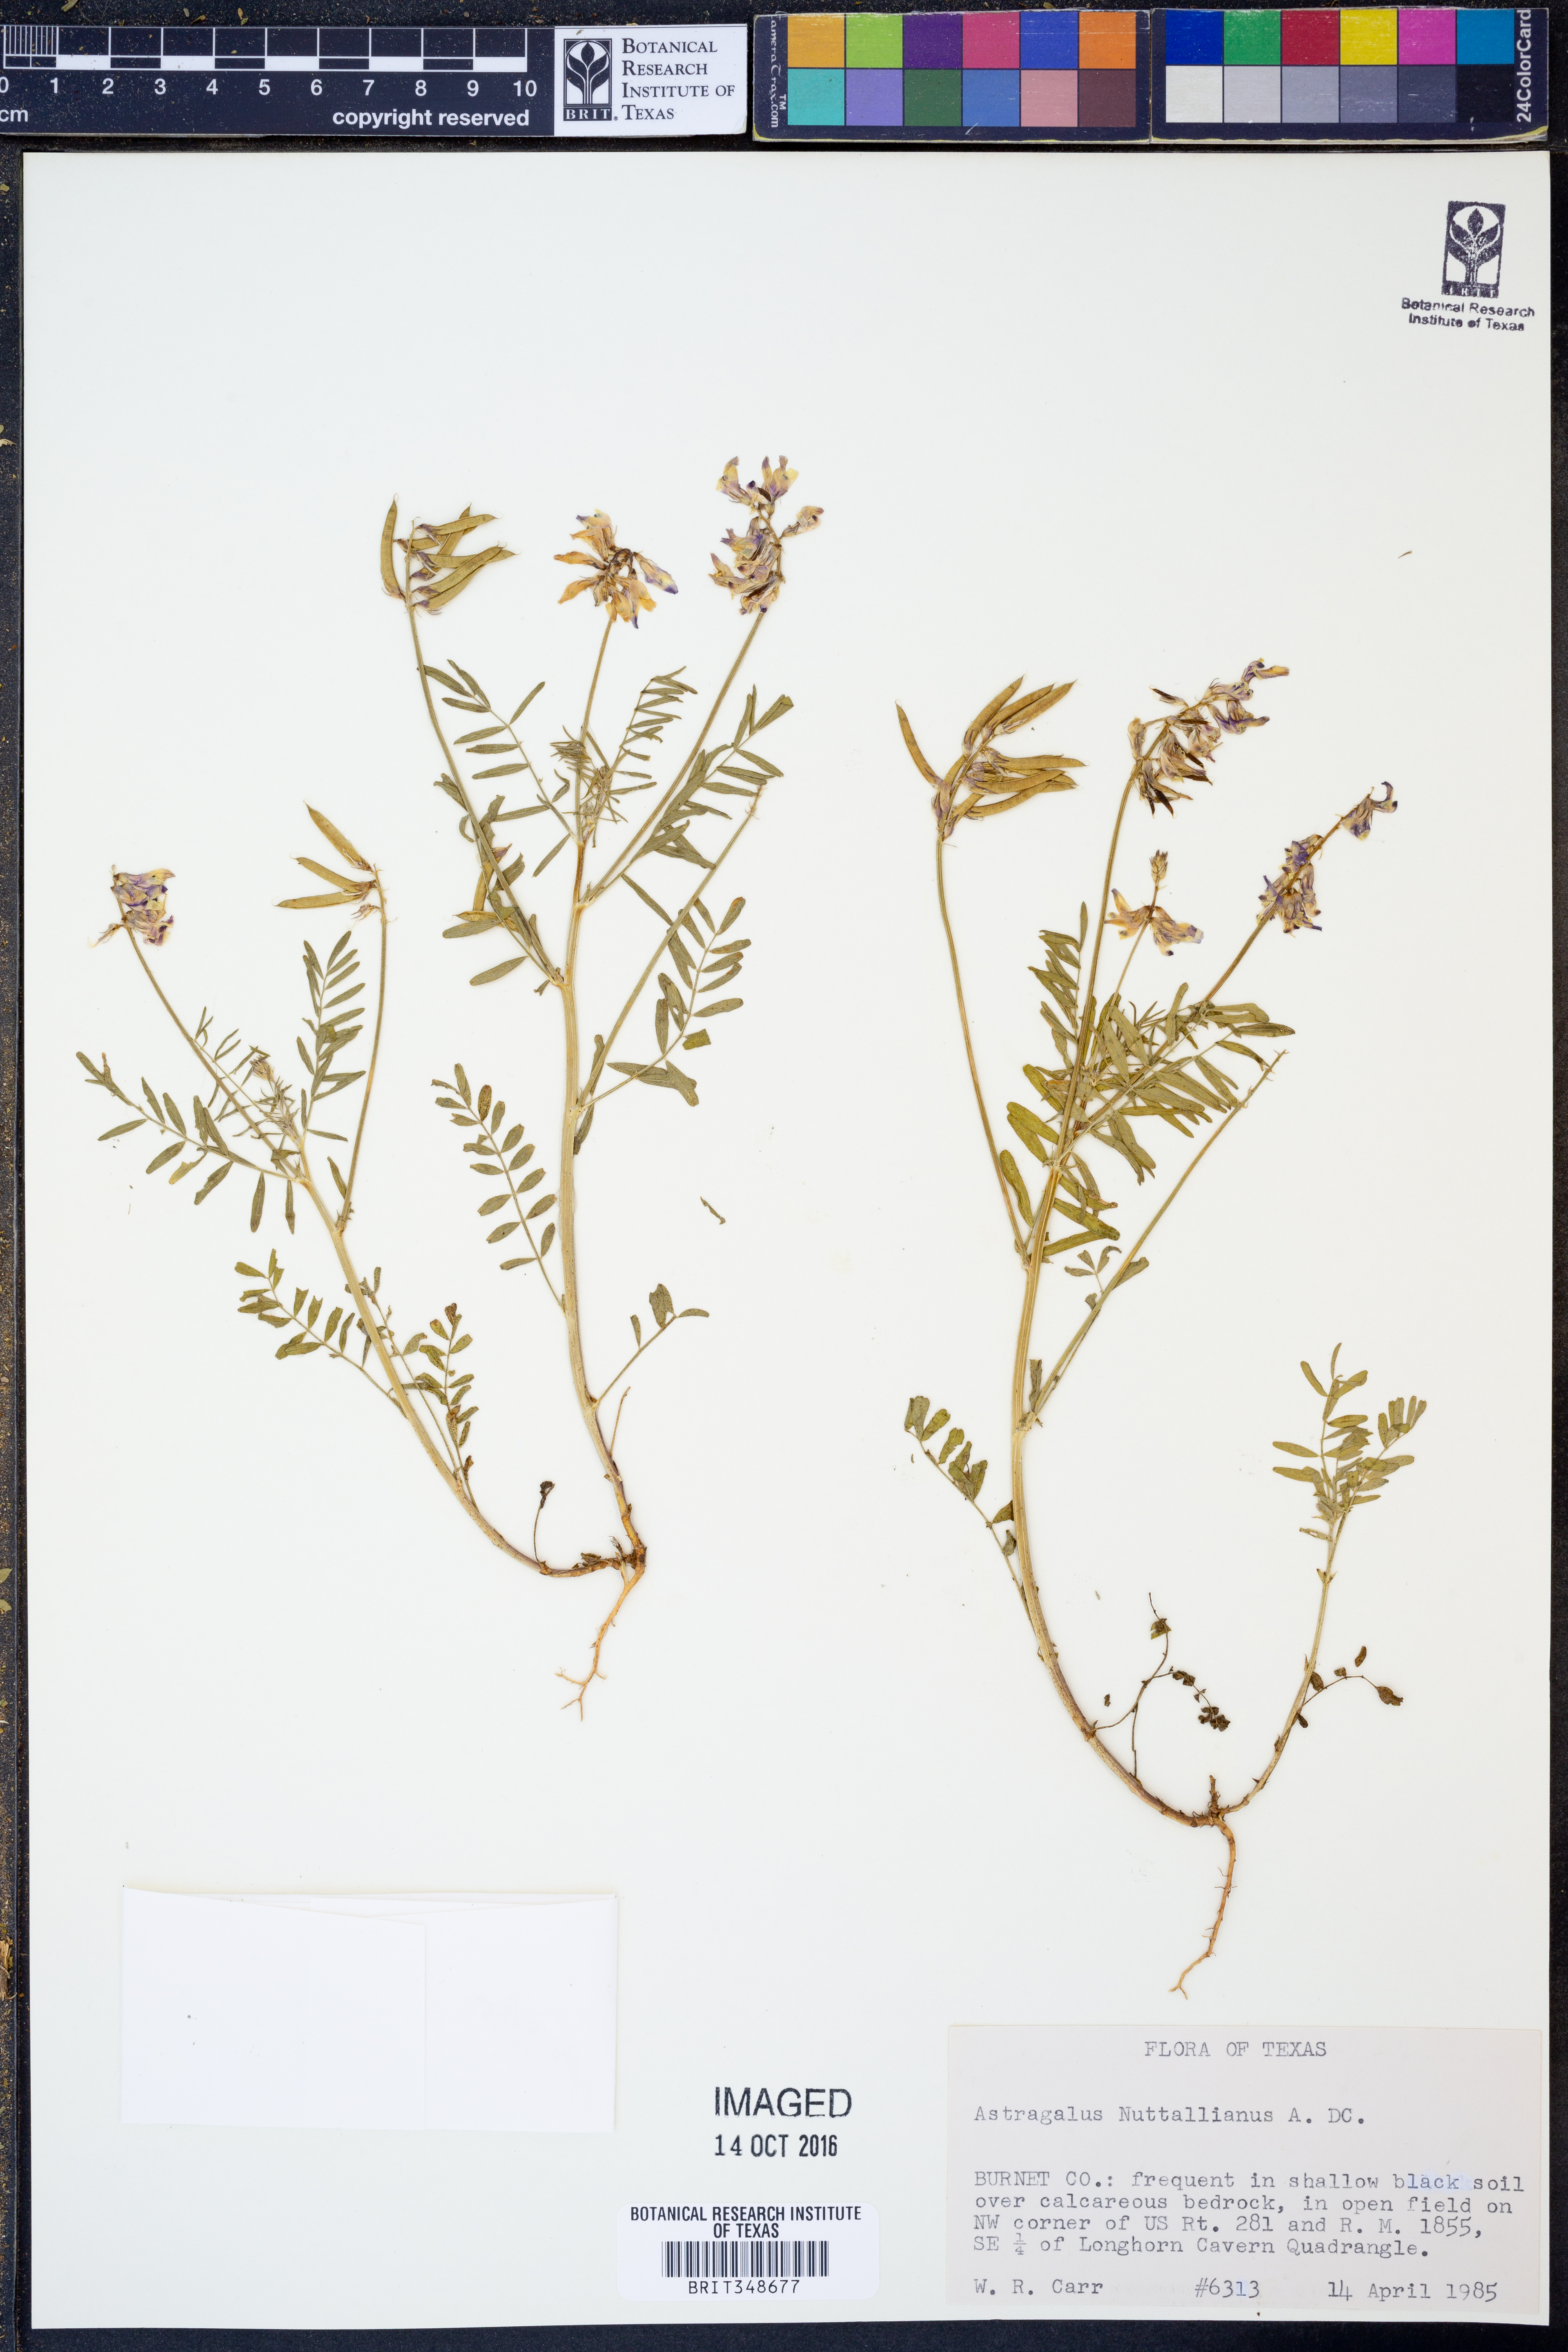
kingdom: Plantae
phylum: Tracheophyta
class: Magnoliopsida
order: Fabales
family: Fabaceae
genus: Astragalus
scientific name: Astragalus nuttallianus
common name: Smallflowered milkvetch
